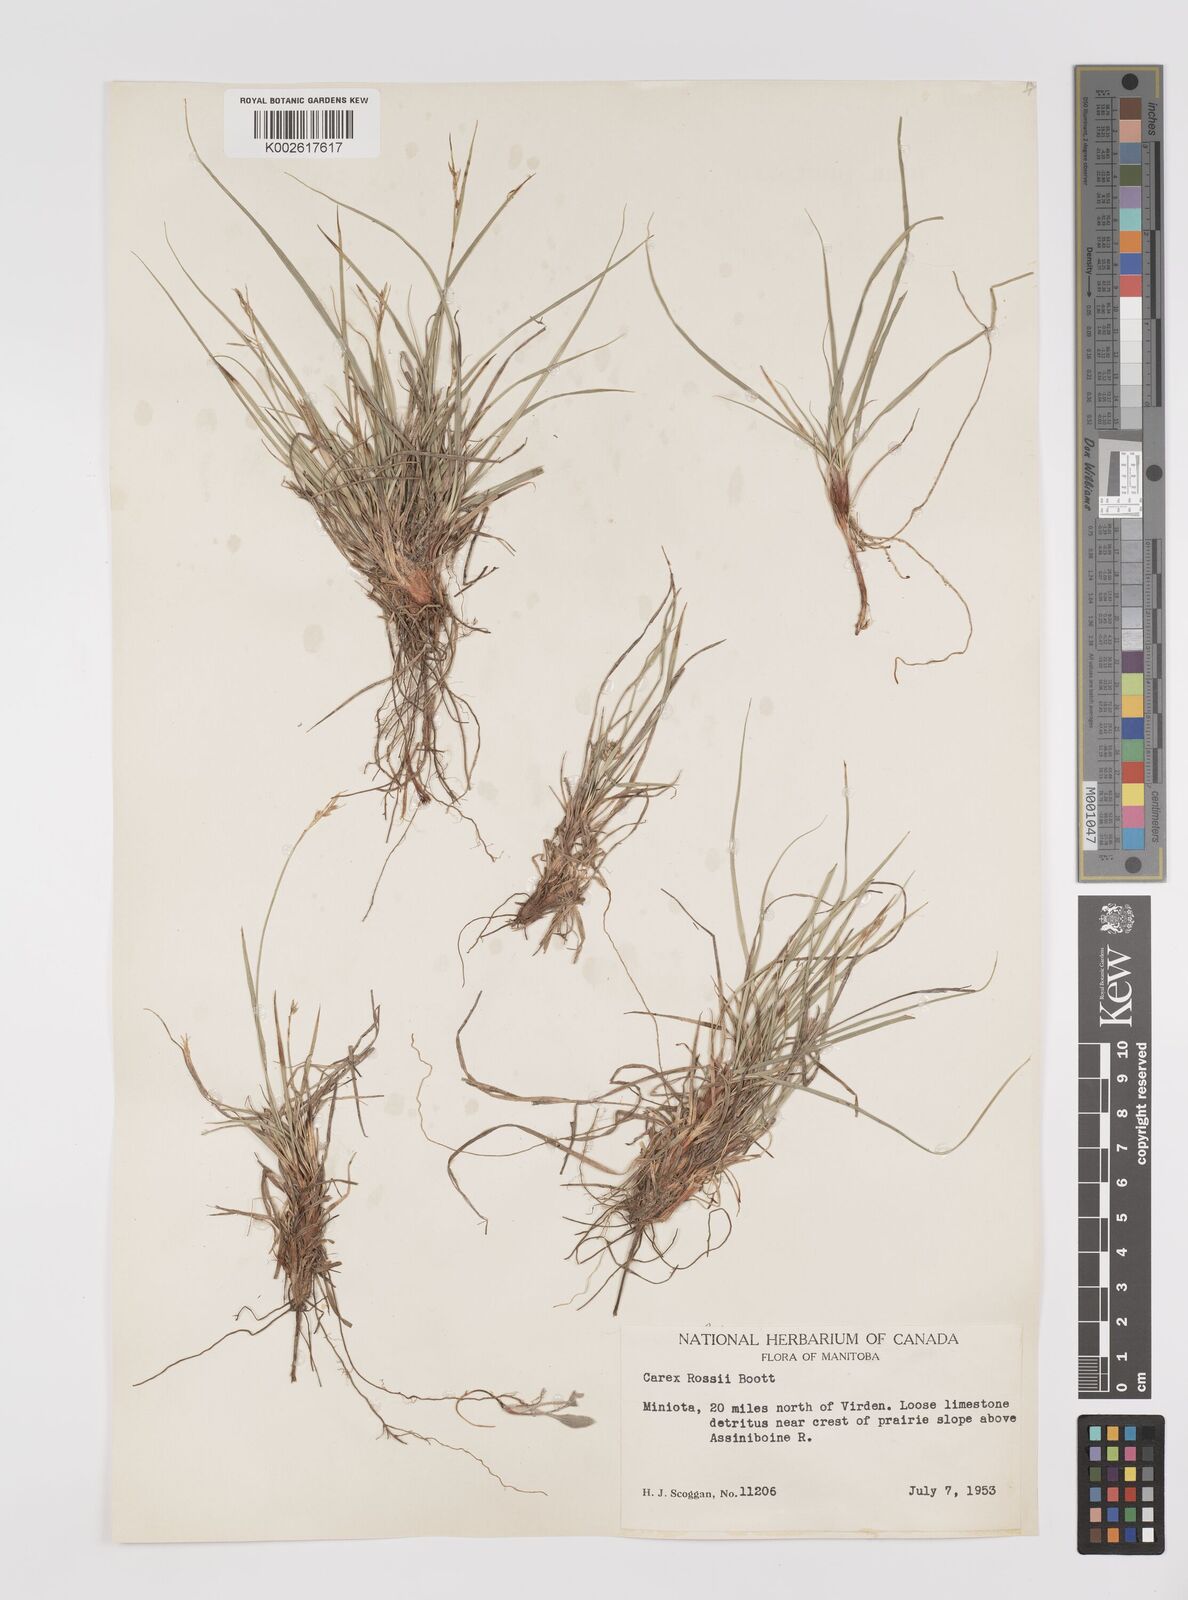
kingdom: Plantae
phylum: Tracheophyta
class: Liliopsida
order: Poales
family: Cyperaceae
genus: Carex
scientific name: Carex rossii
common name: Ross' sedge
